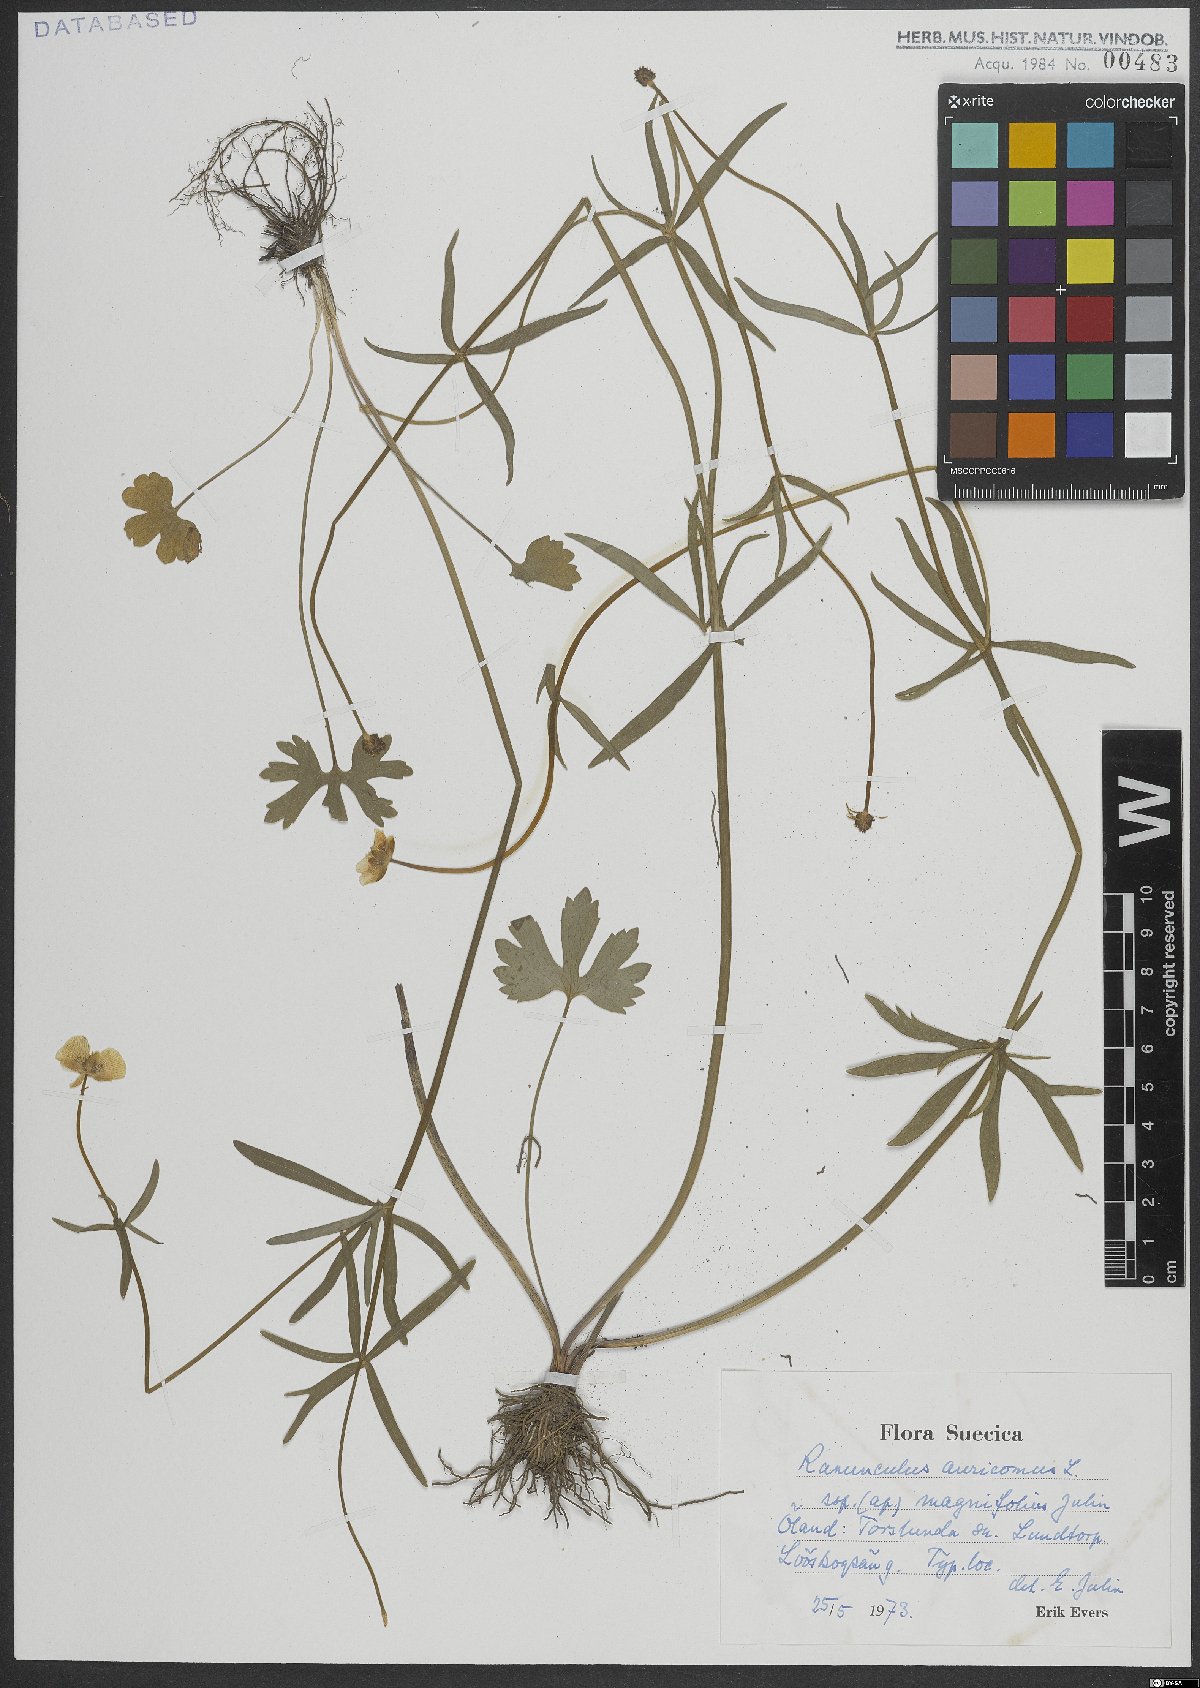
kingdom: Plantae
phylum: Tracheophyta
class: Magnoliopsida
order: Ranunculales
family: Ranunculaceae
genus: Ranunculus
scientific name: Ranunculus auricomus
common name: Goldilocks buttercup
